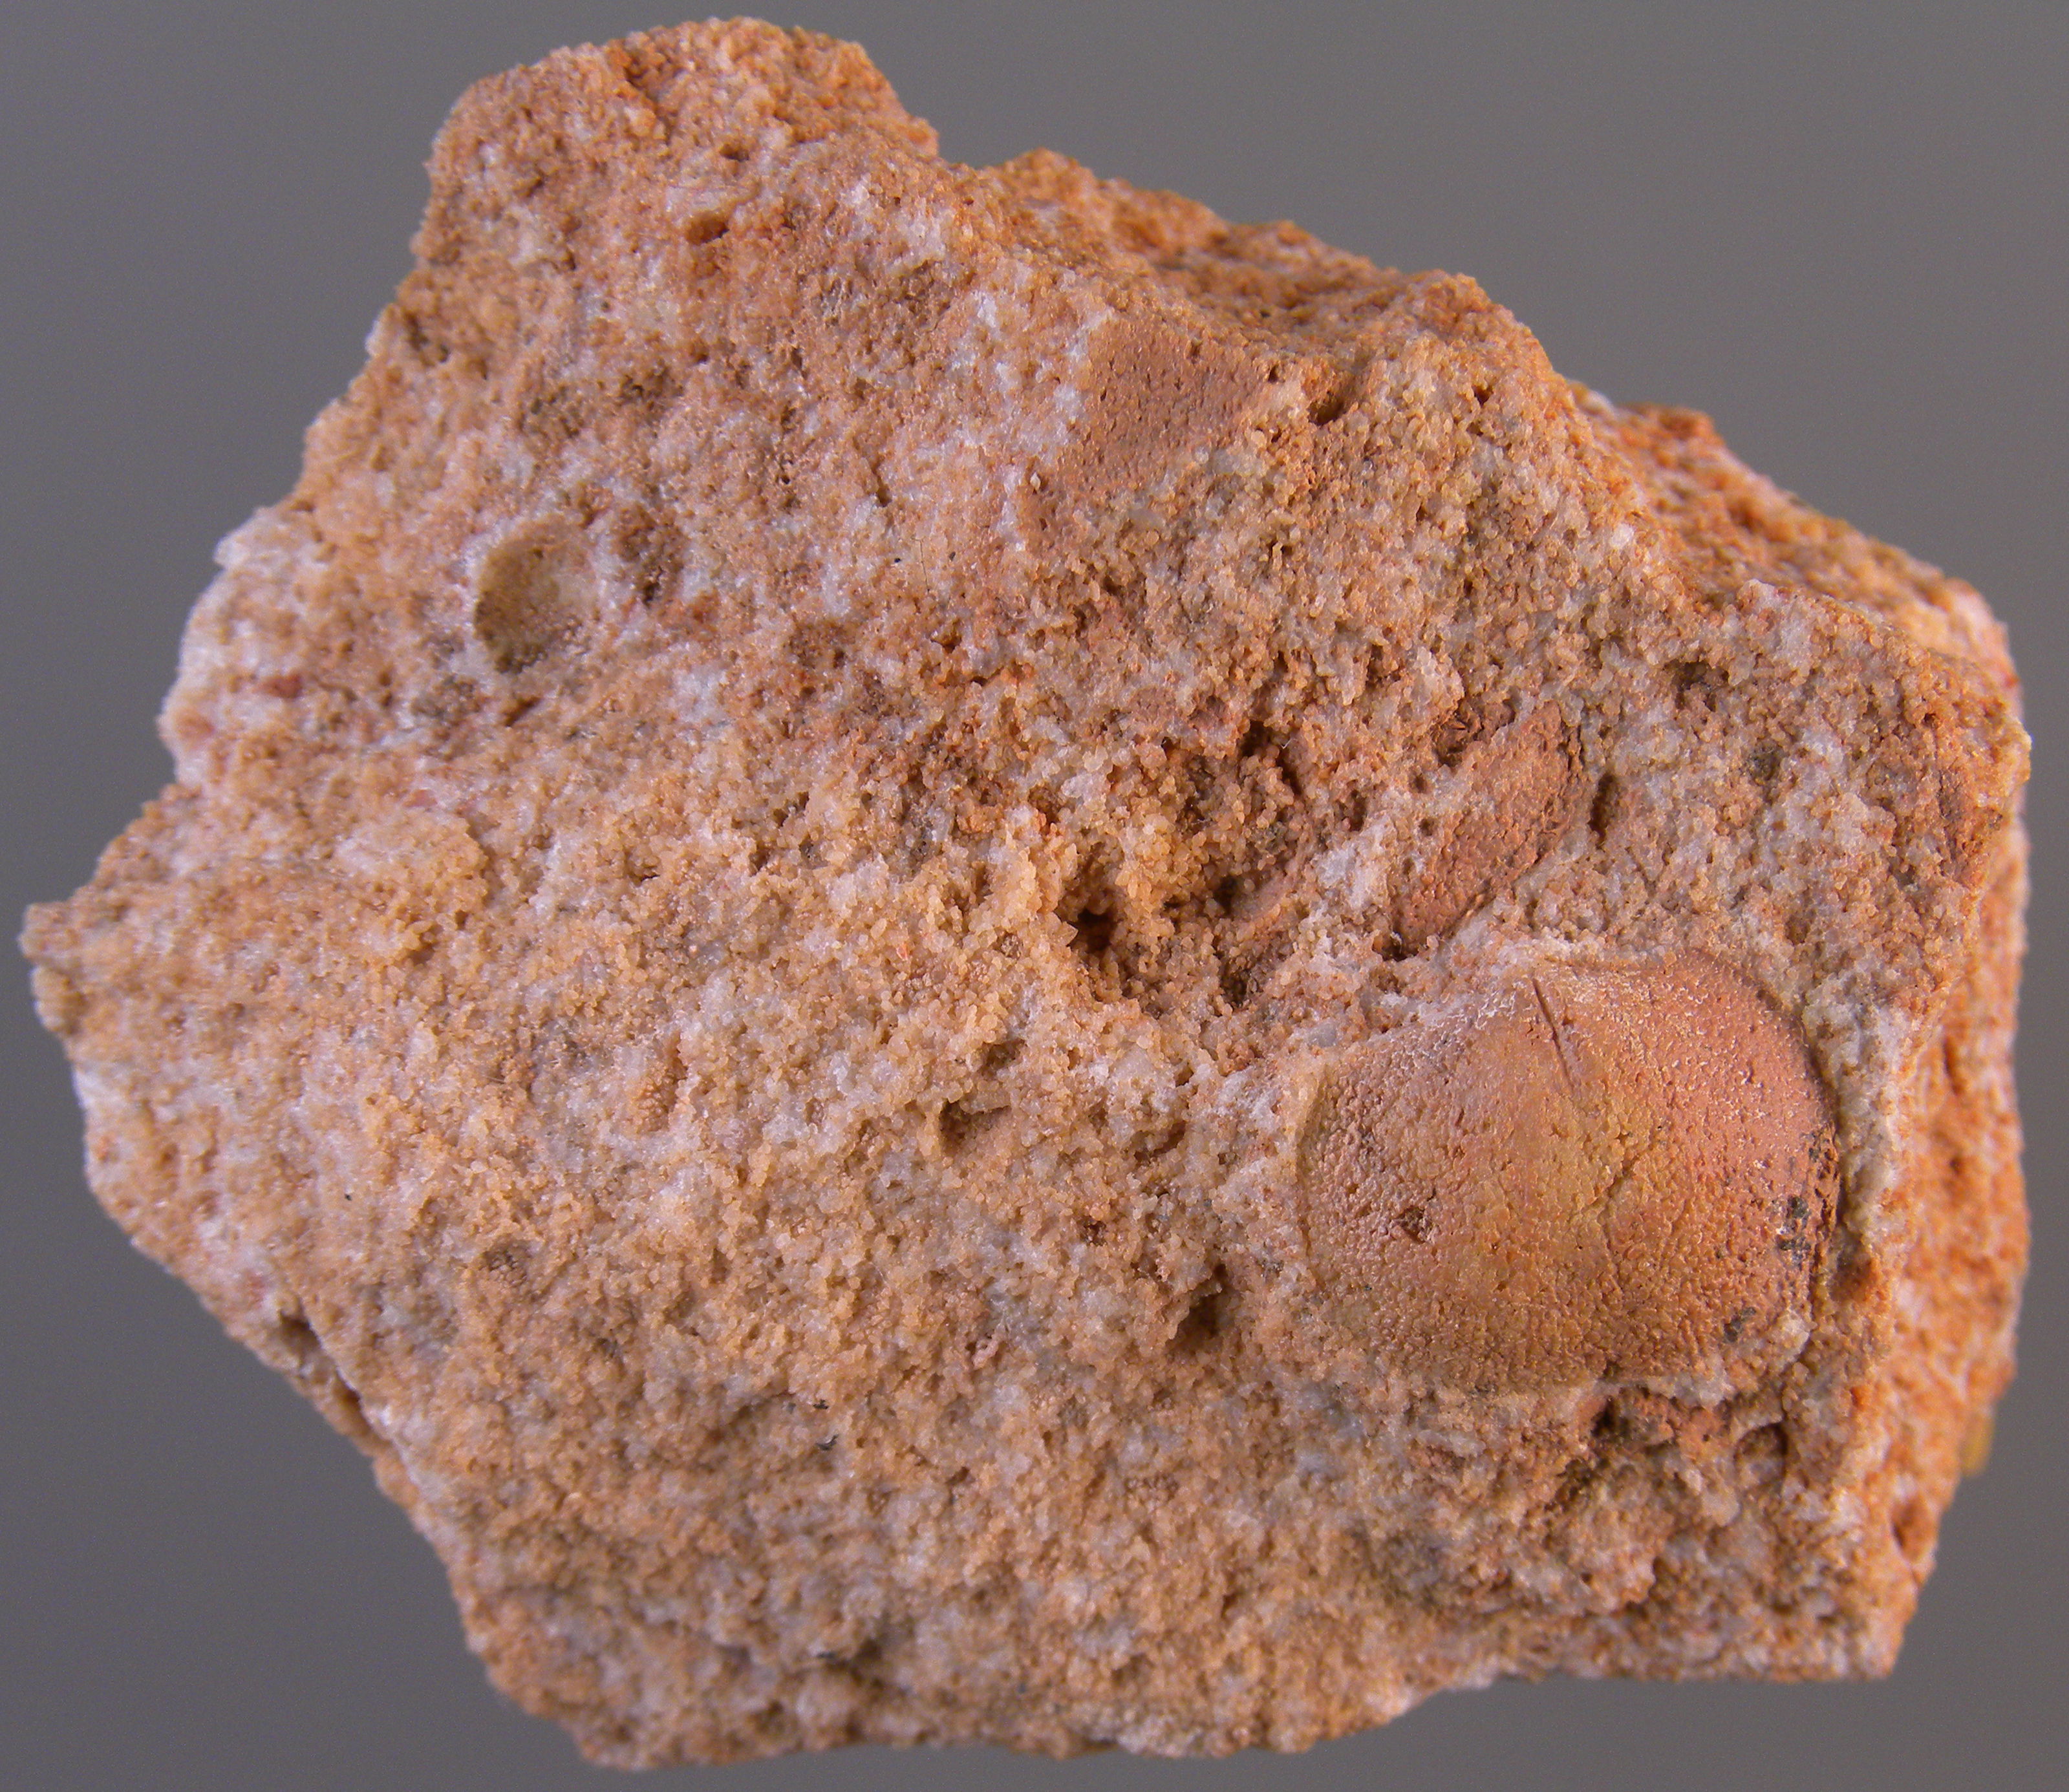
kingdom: Animalia
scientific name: Animalia
